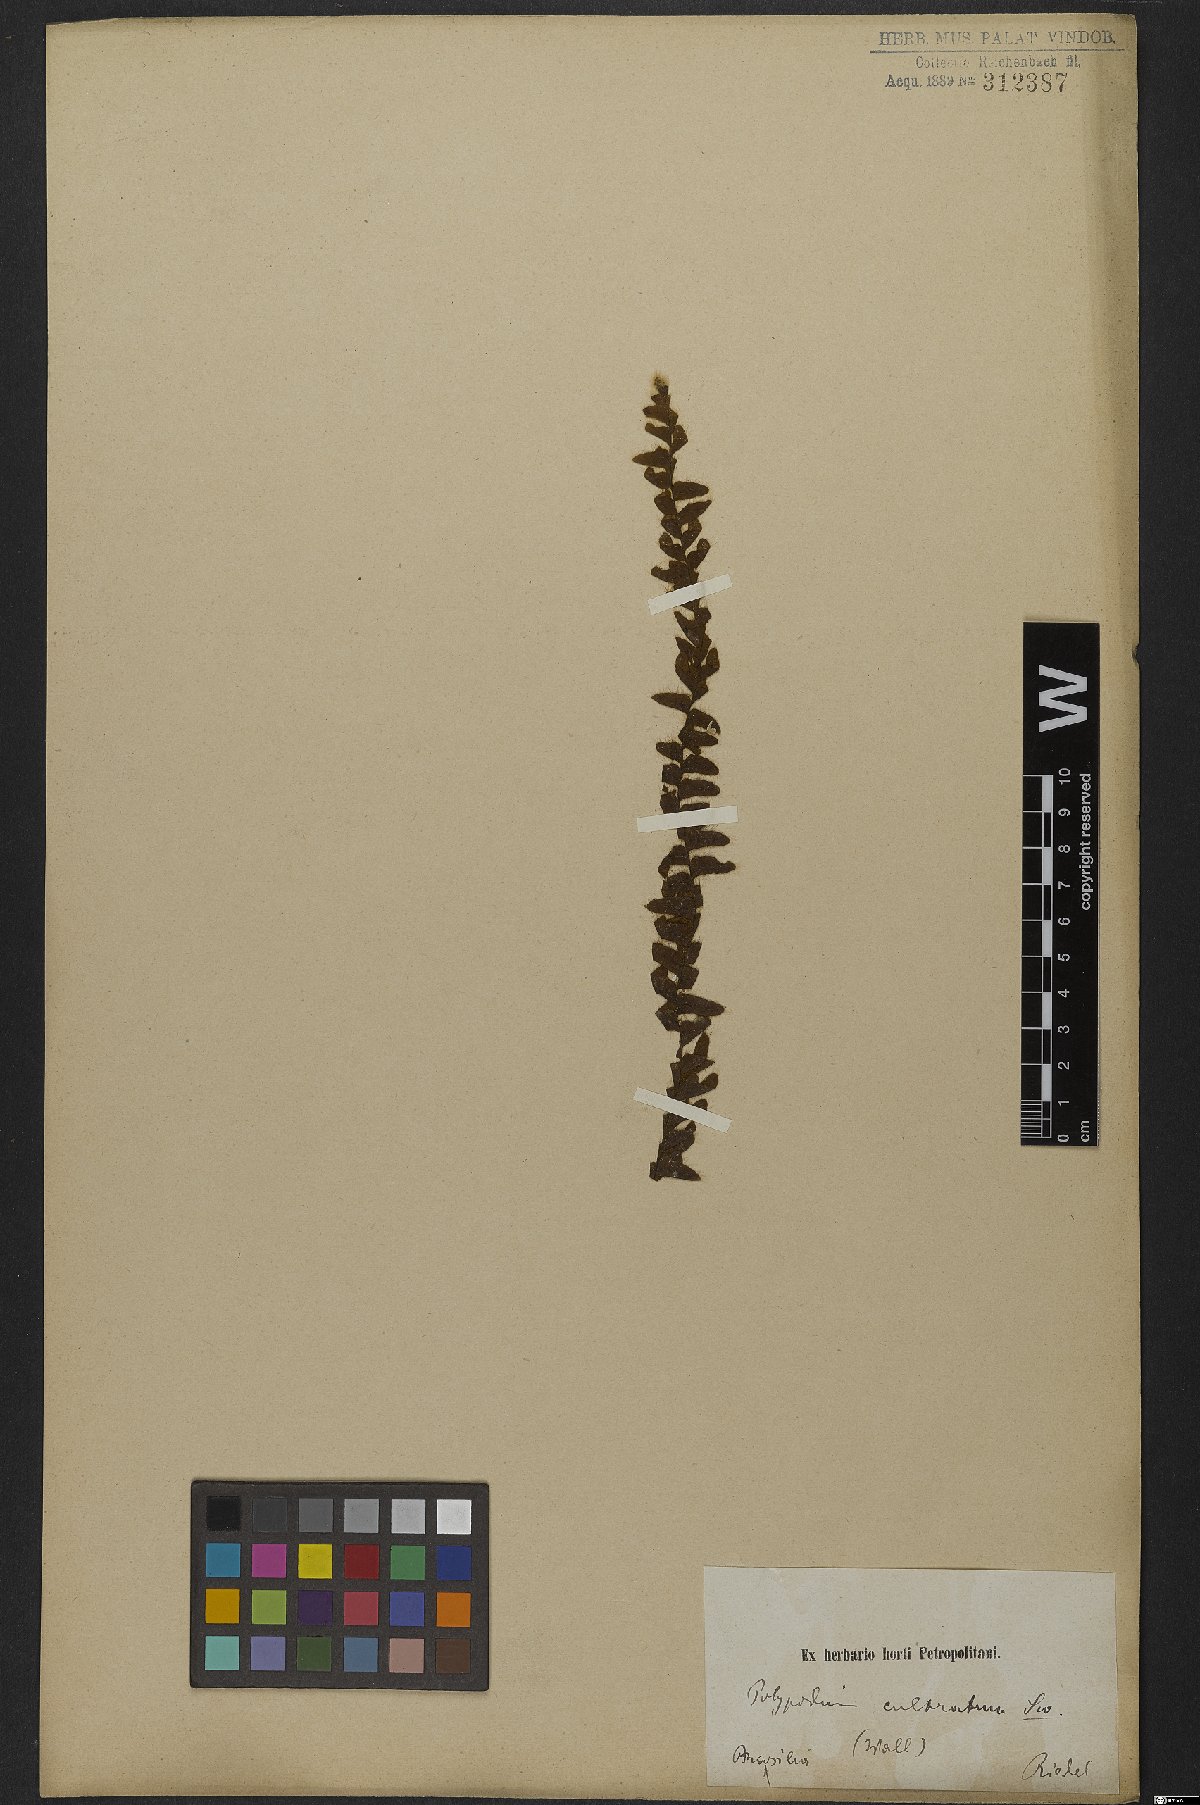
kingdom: Plantae
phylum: Tracheophyta
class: Polypodiopsida
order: Polypodiales
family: Polypodiaceae
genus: Alansmia
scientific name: Alansmia cultrata
